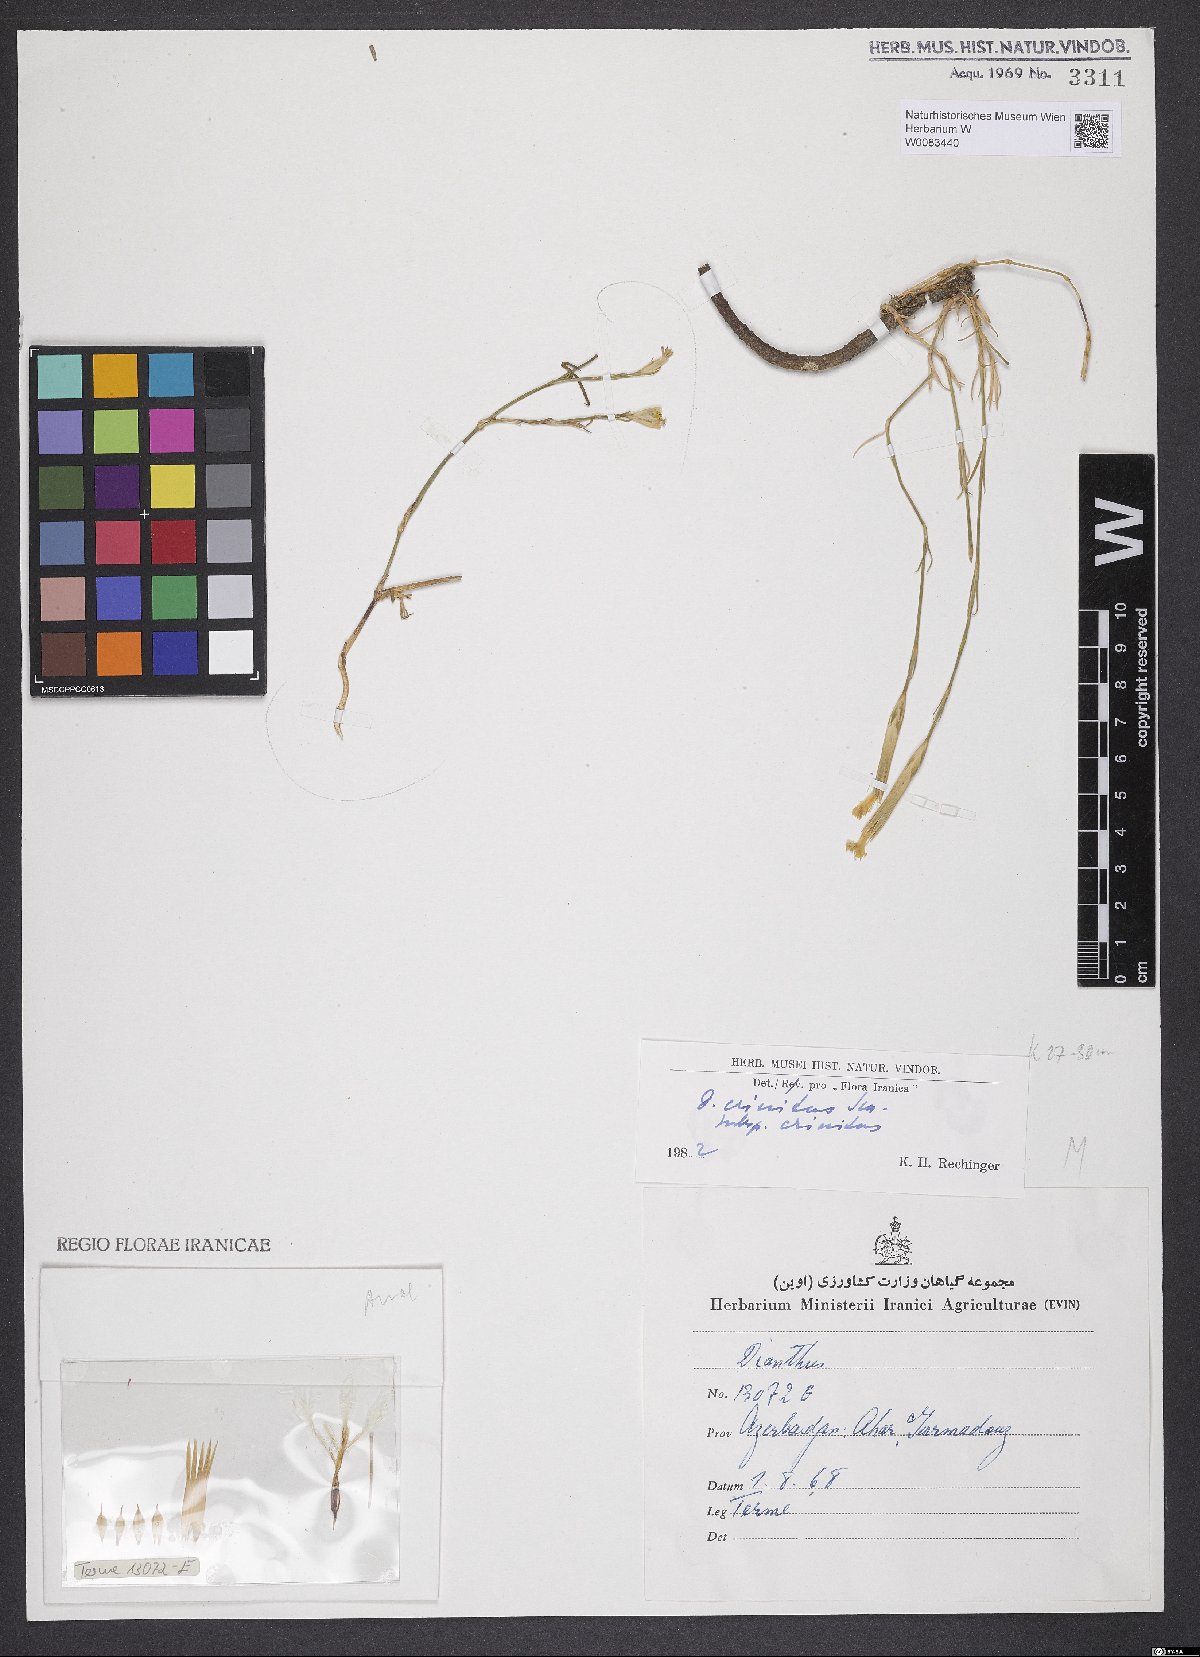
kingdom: Plantae
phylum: Tracheophyta
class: Magnoliopsida
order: Caryophyllales
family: Caryophyllaceae
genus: Dianthus
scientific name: Dianthus crinitus
